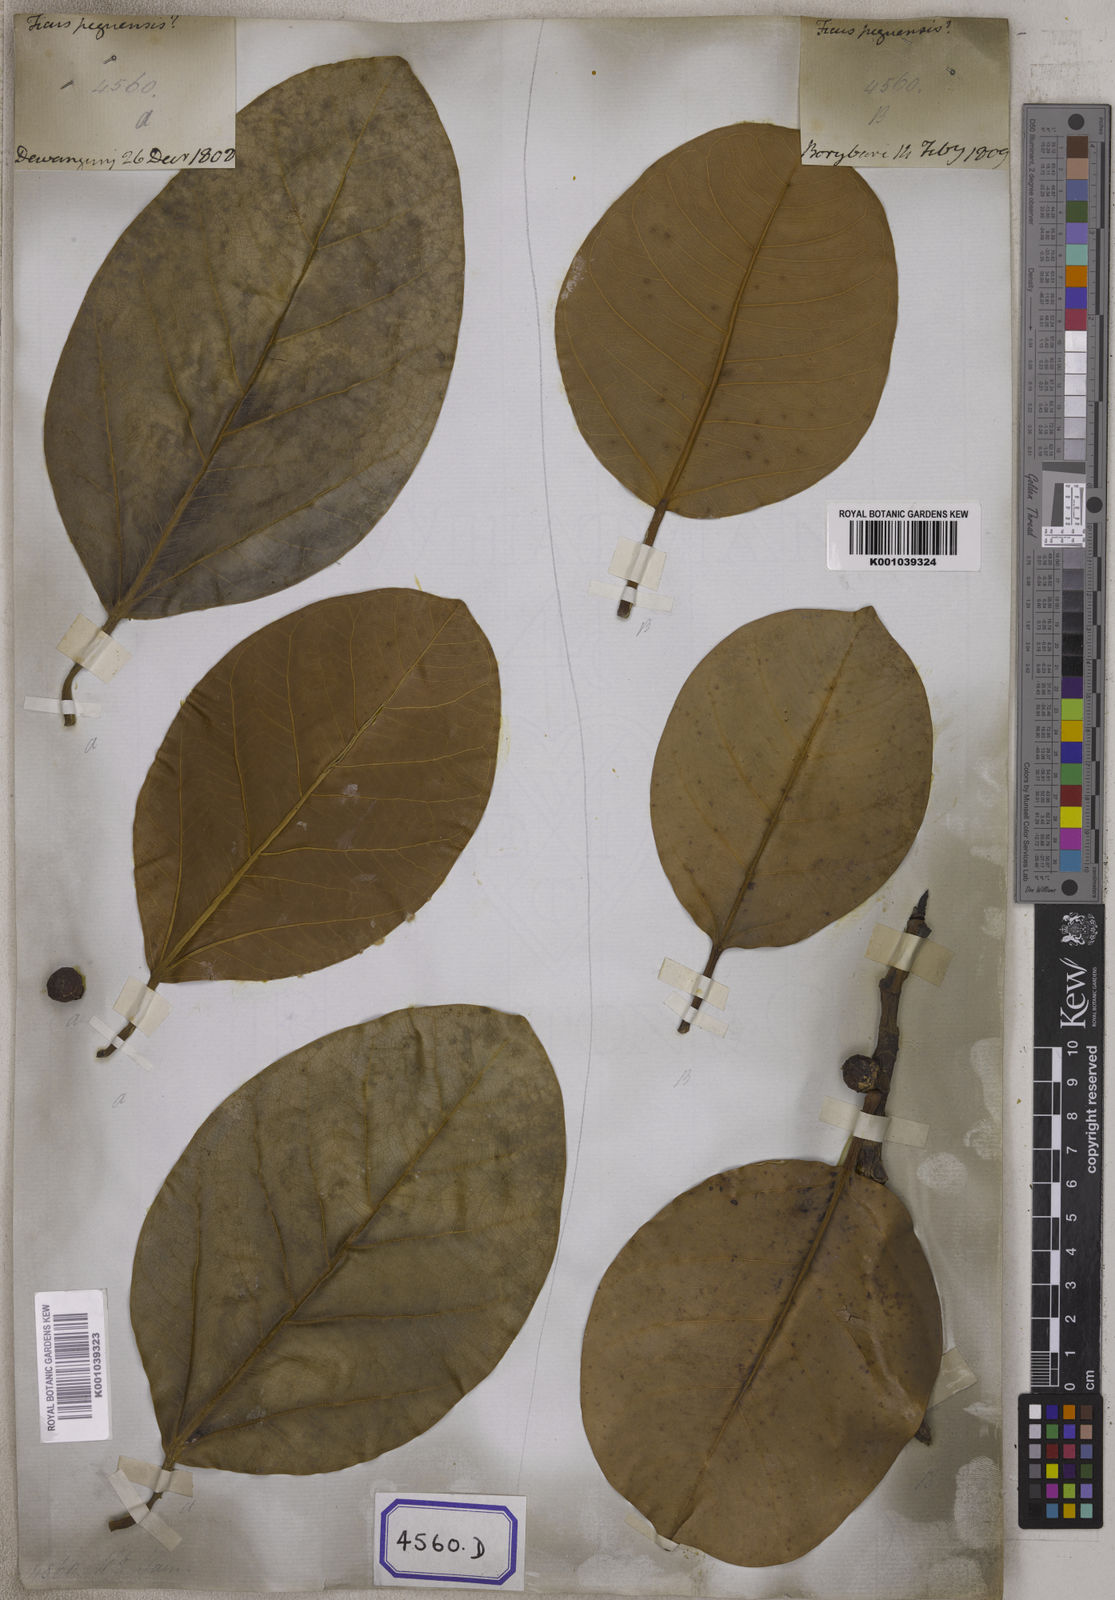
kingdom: Plantae
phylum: Tracheophyta
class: Magnoliopsida
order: Rosales
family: Moraceae
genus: Ficus
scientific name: Ficus
